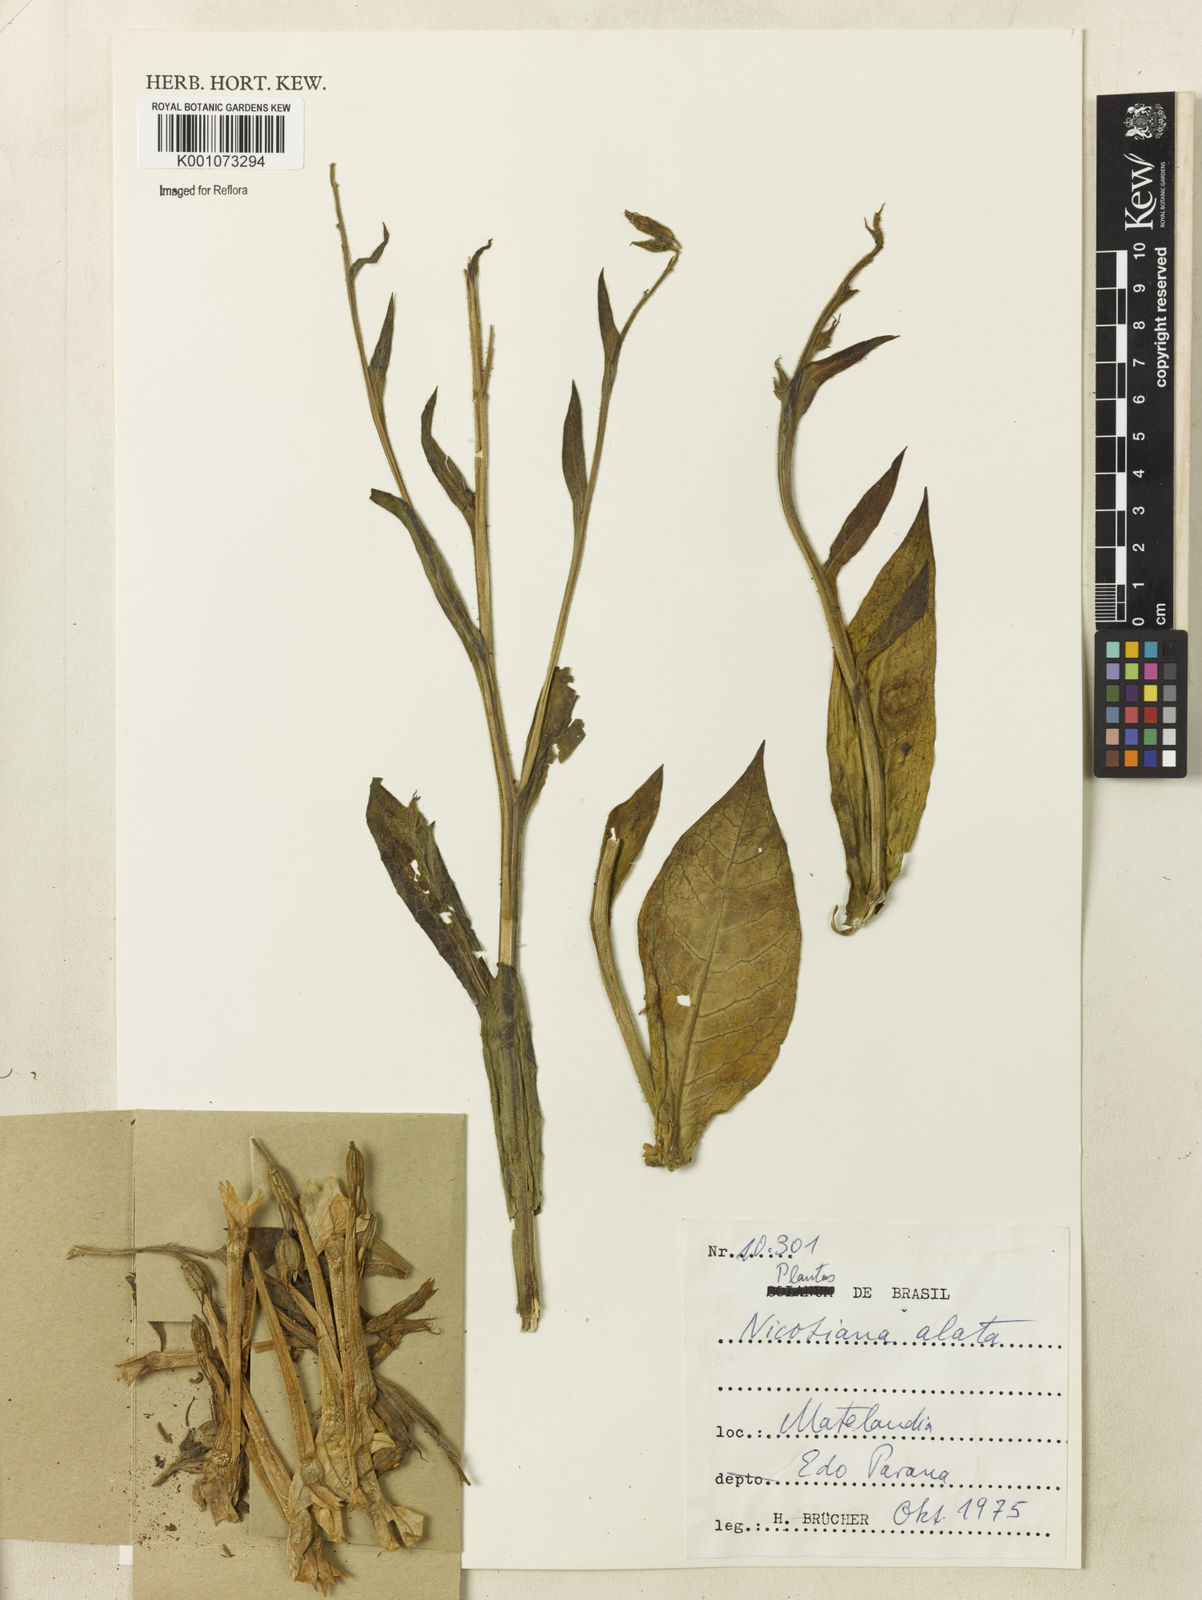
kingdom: Plantae
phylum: Tracheophyta
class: Magnoliopsida
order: Solanales
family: Solanaceae
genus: Nicotiana
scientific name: Nicotiana alata
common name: Jasmine tobacco
